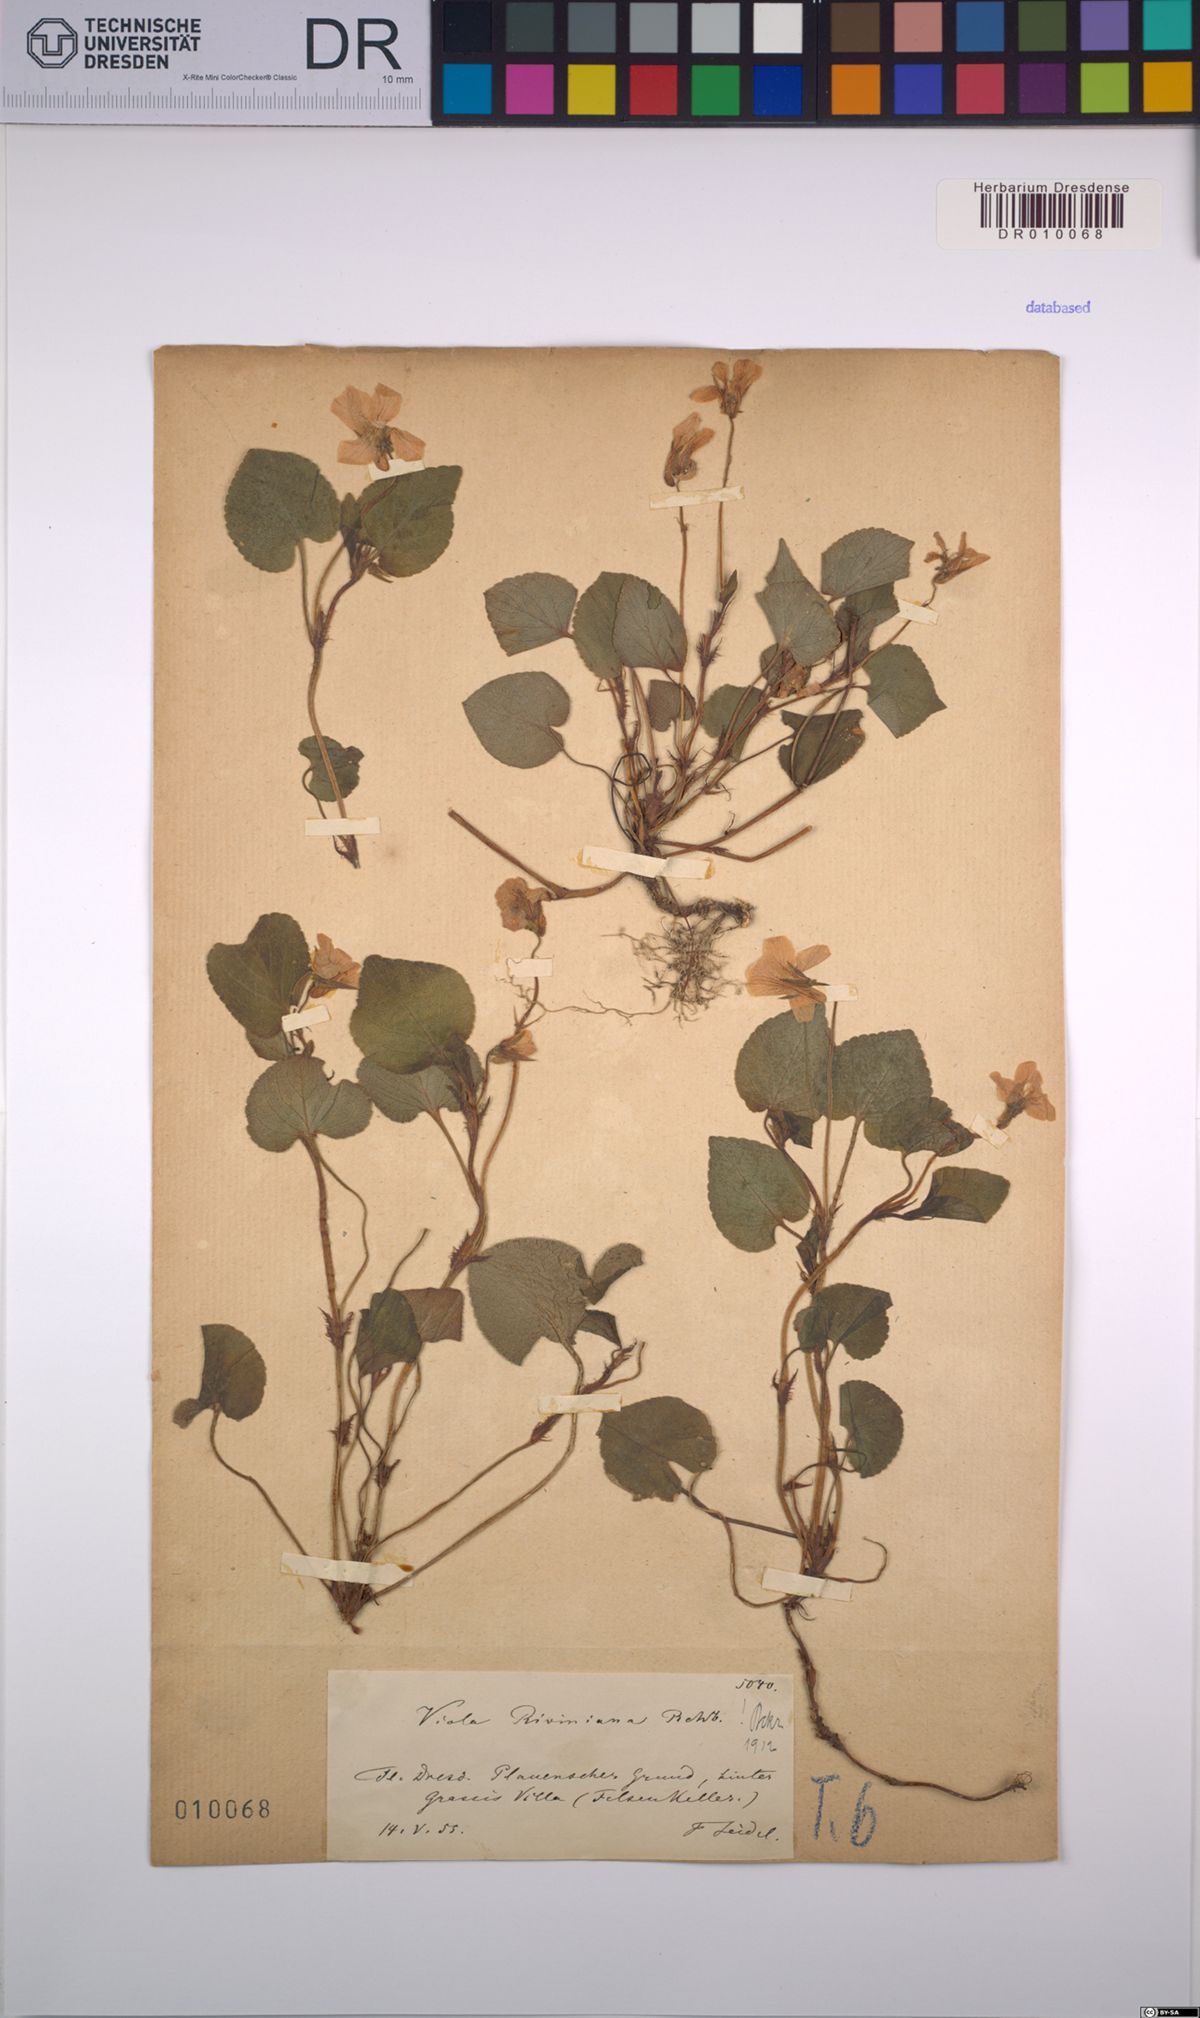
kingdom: Plantae
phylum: Tracheophyta
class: Magnoliopsida
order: Malpighiales
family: Violaceae
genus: Viola
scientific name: Viola riviniana
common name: Common dog-violet
